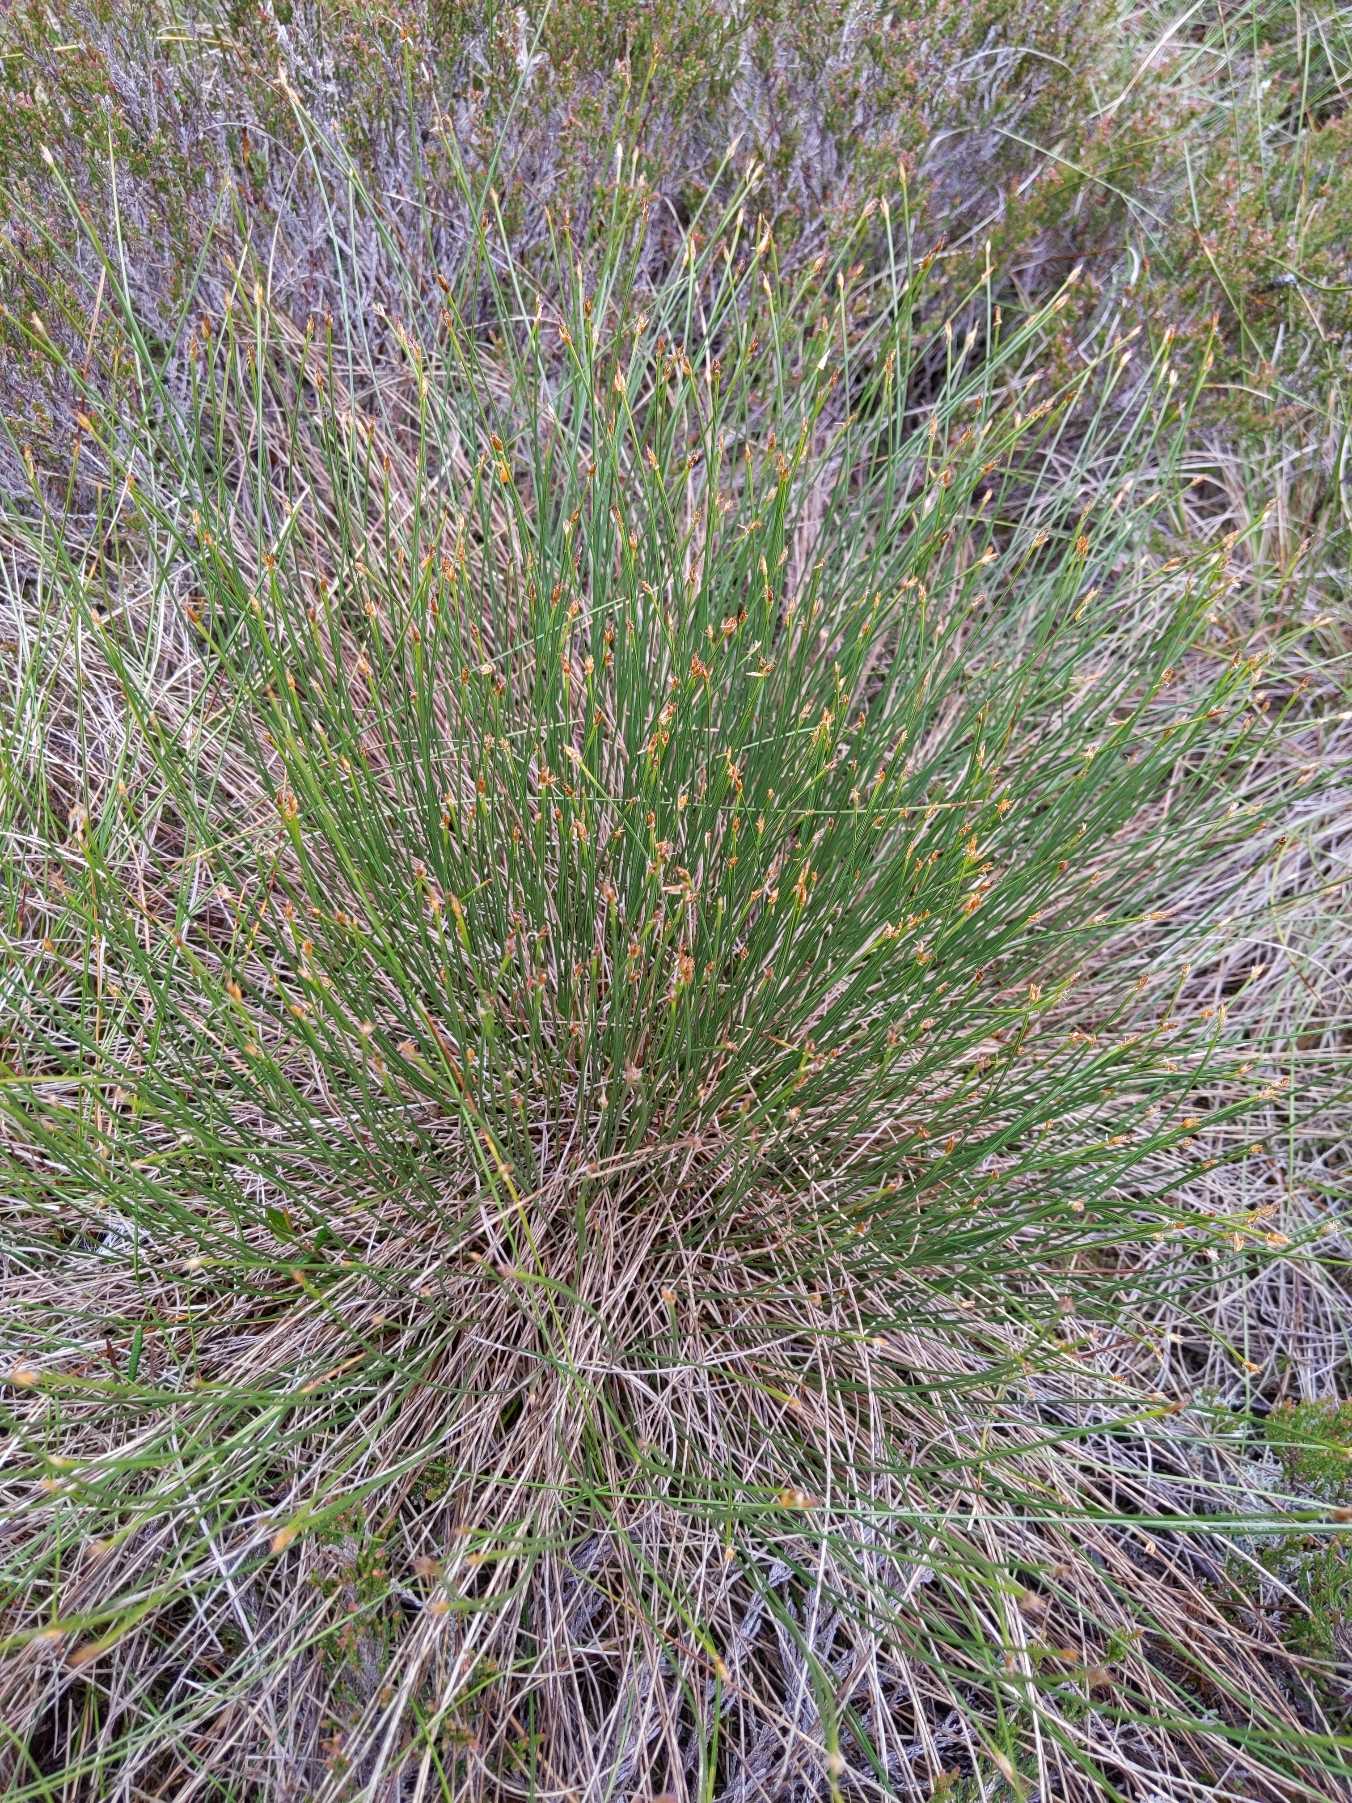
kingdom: Plantae
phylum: Tracheophyta
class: Liliopsida
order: Poales
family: Cyperaceae
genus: Trichophorum
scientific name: Trichophorum cespitosum
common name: Vestlig tuekogleaks
